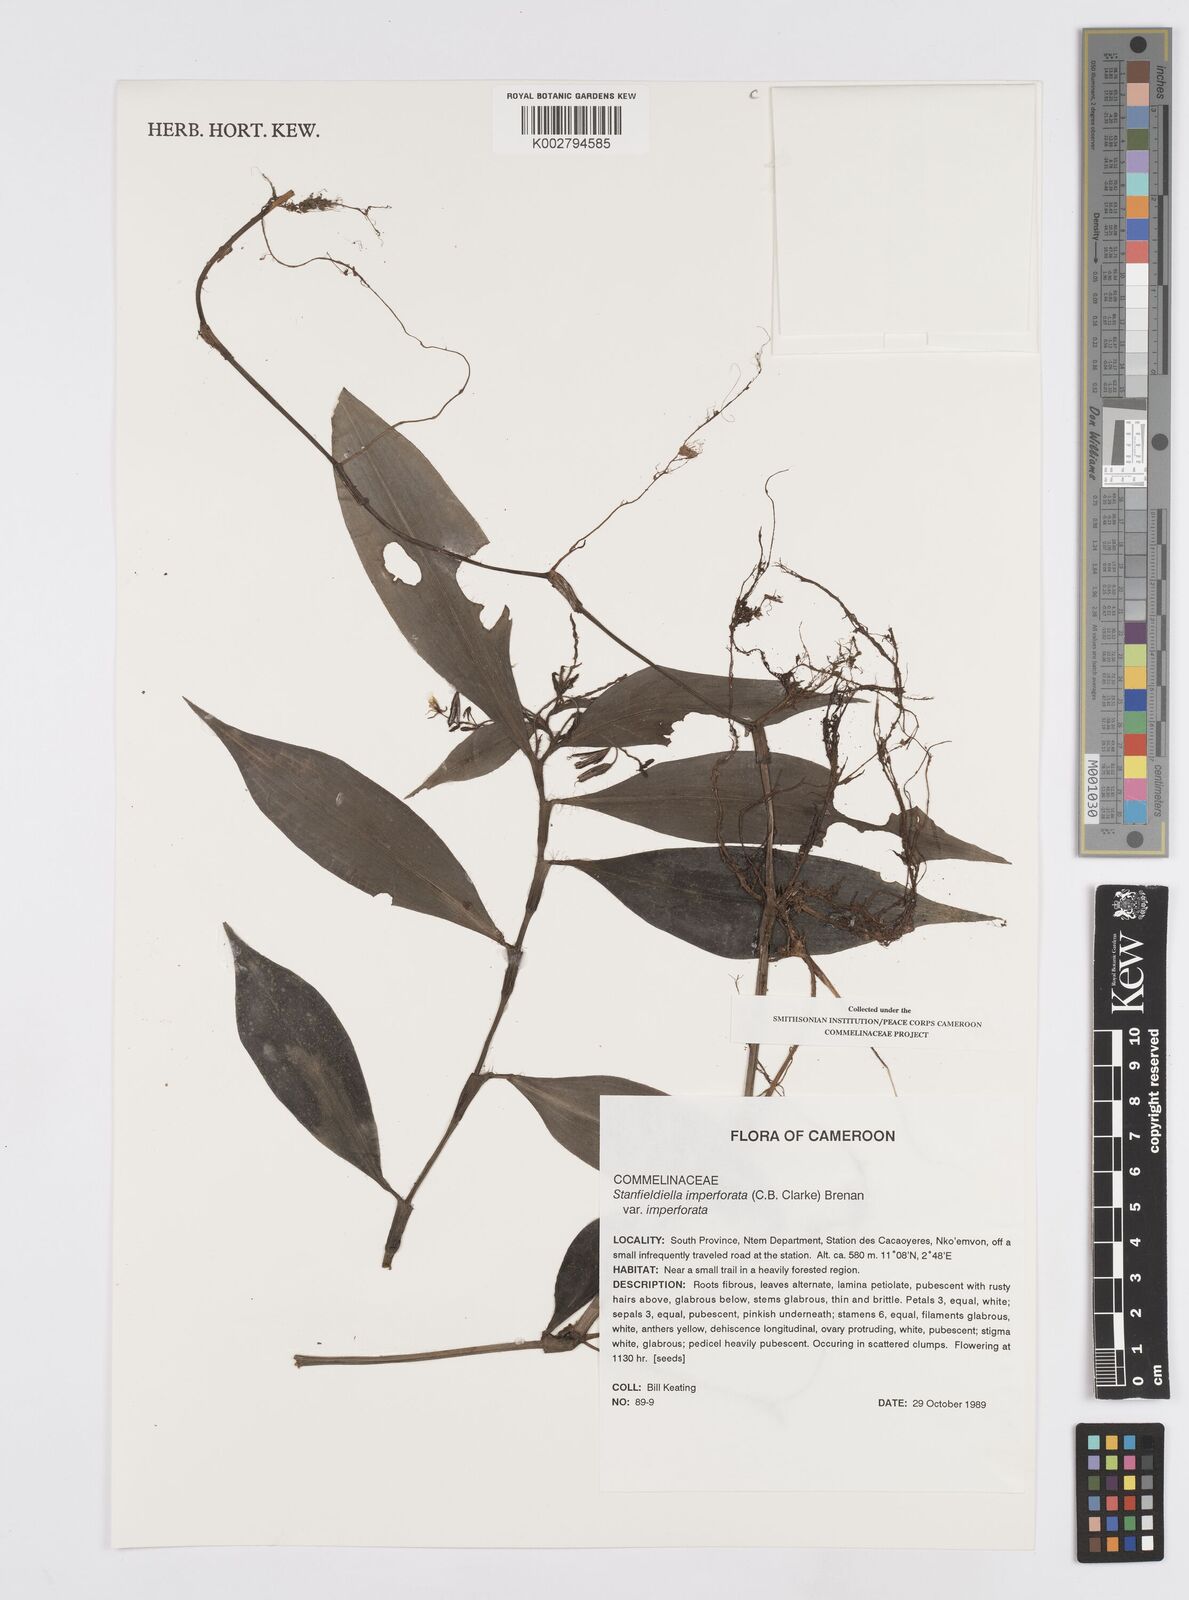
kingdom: Plantae
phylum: Tracheophyta
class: Liliopsida
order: Commelinales
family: Commelinaceae
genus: Stanfieldiella
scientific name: Stanfieldiella imperforata
